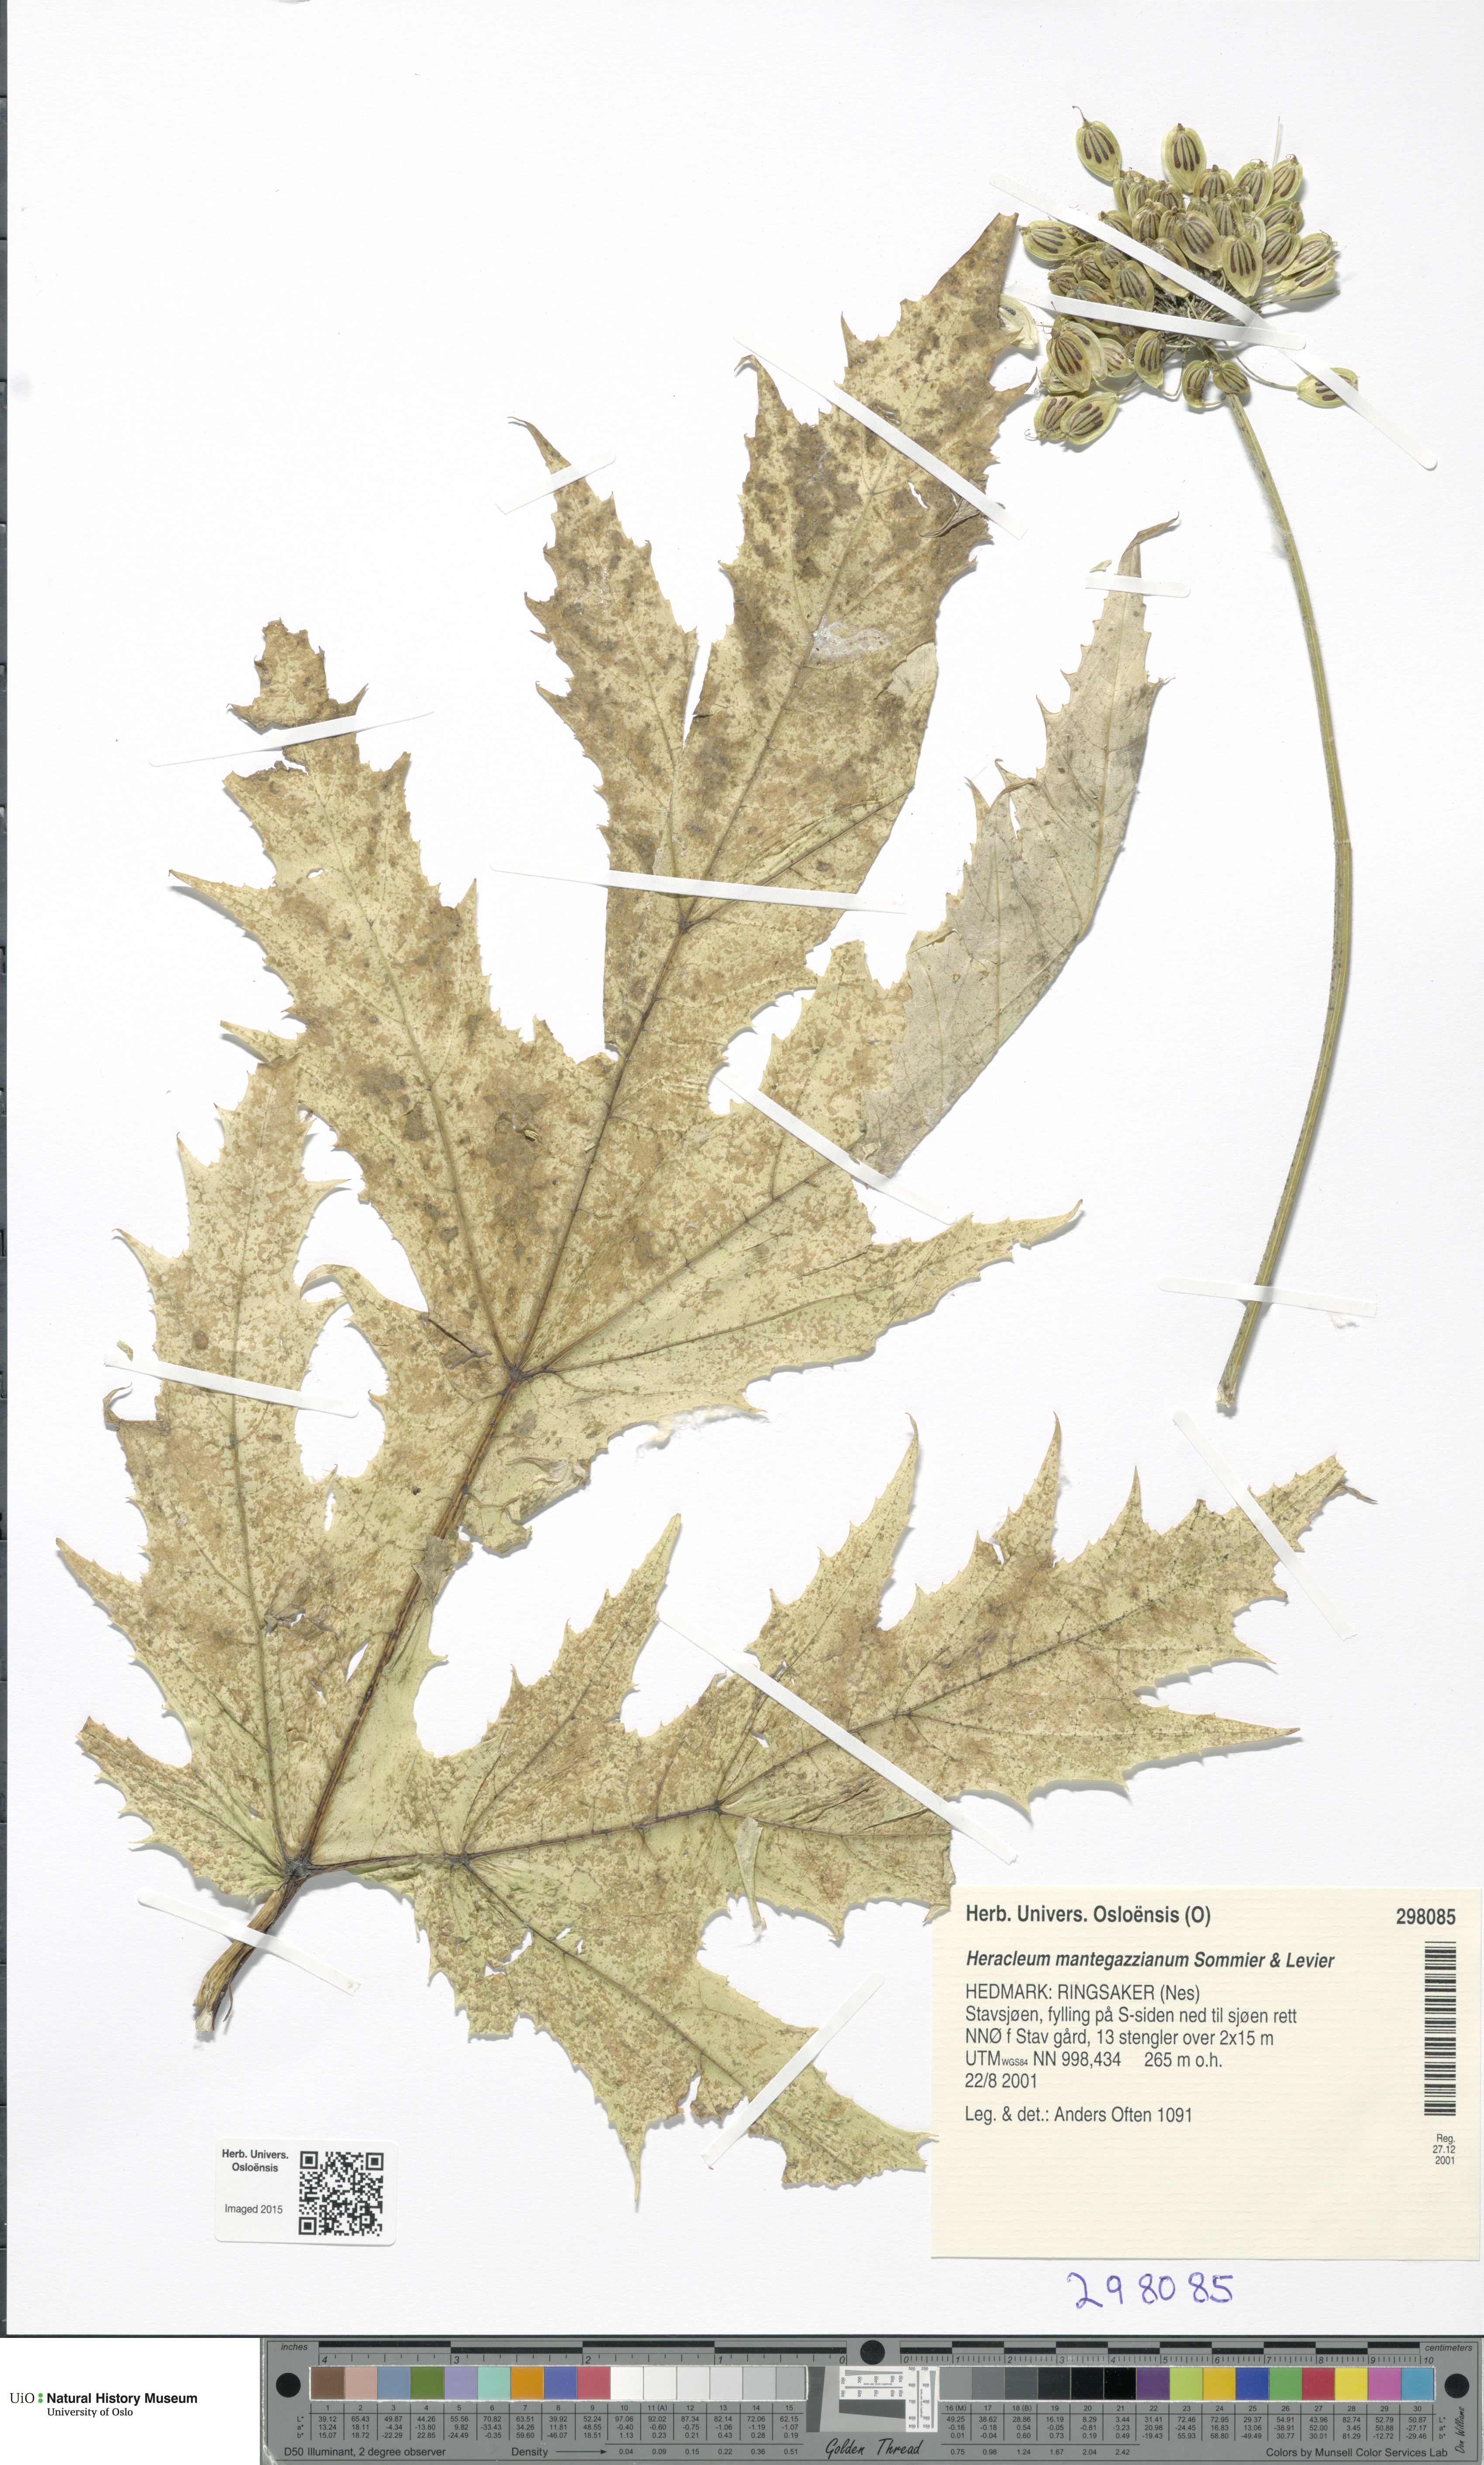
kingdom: Plantae
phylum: Tracheophyta
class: Magnoliopsida
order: Apiales
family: Apiaceae
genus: Heracleum
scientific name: Heracleum mantegazzianum
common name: Giant hogweed
